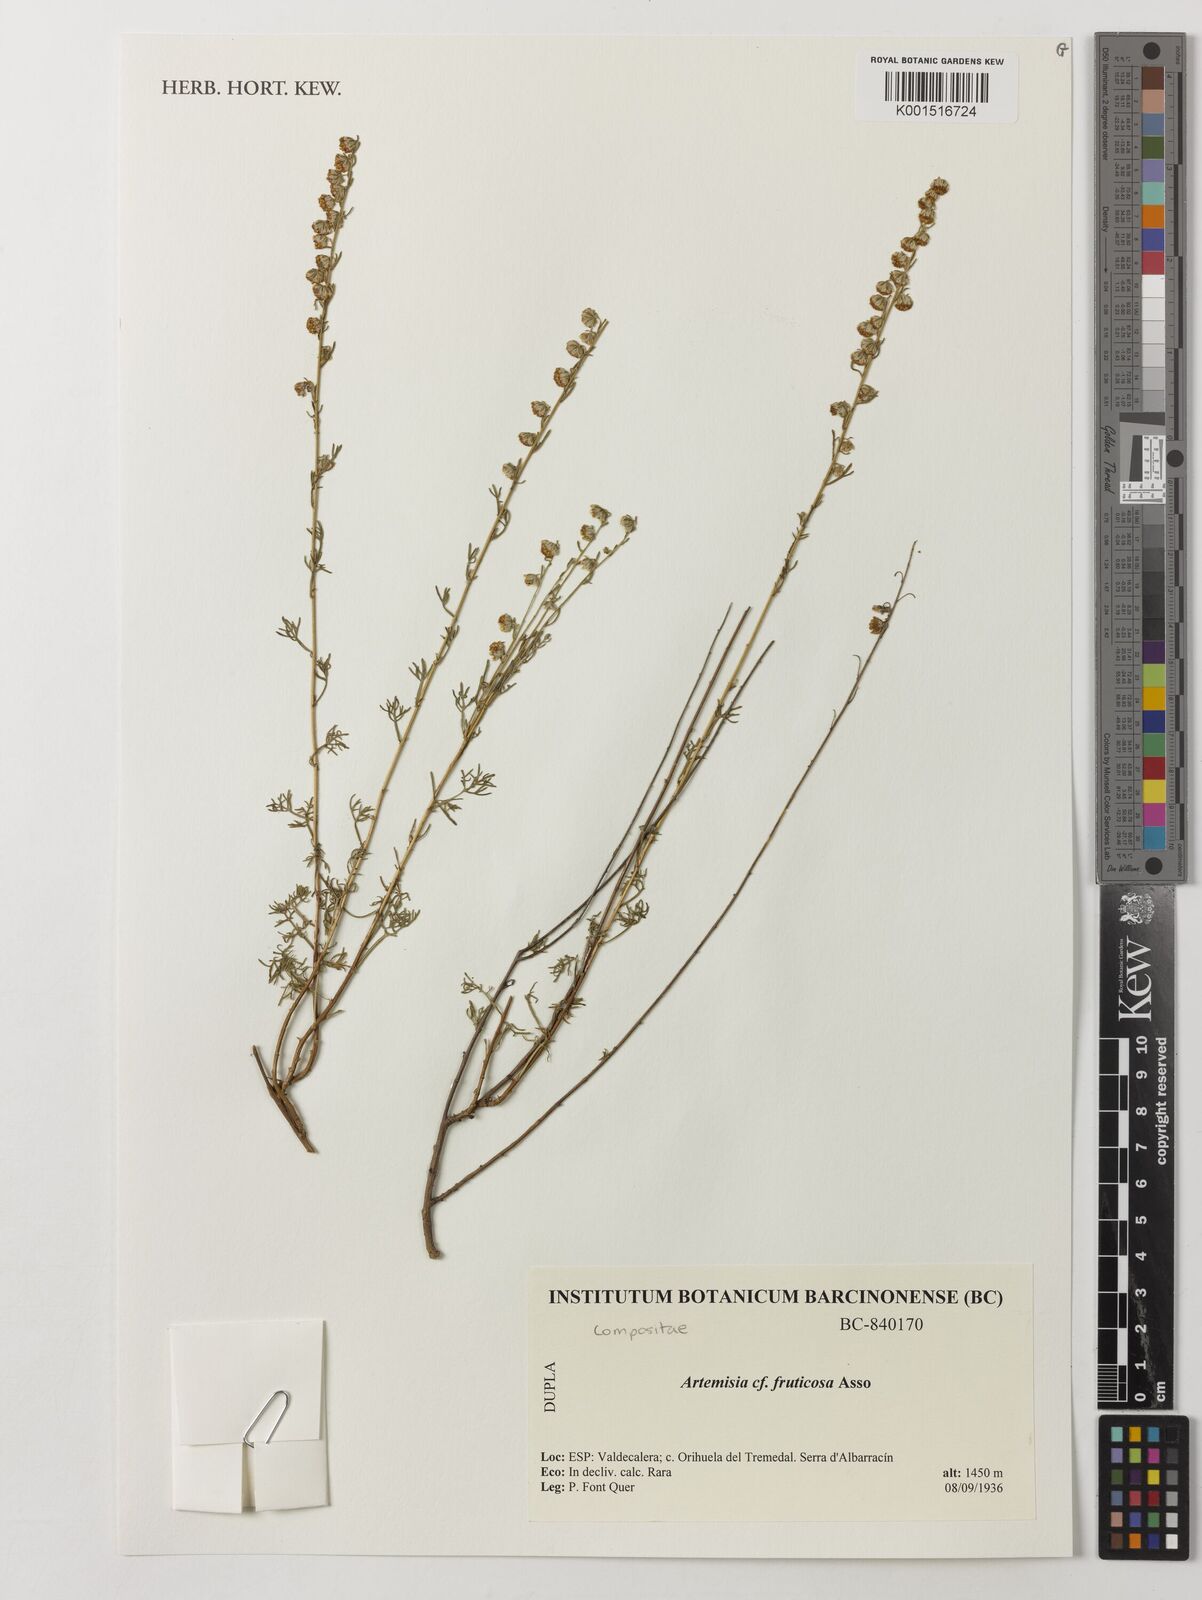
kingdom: Plantae
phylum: Tracheophyta
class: Magnoliopsida
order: Asterales
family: Asteraceae
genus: Artemisia
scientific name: Artemisia arenaria
